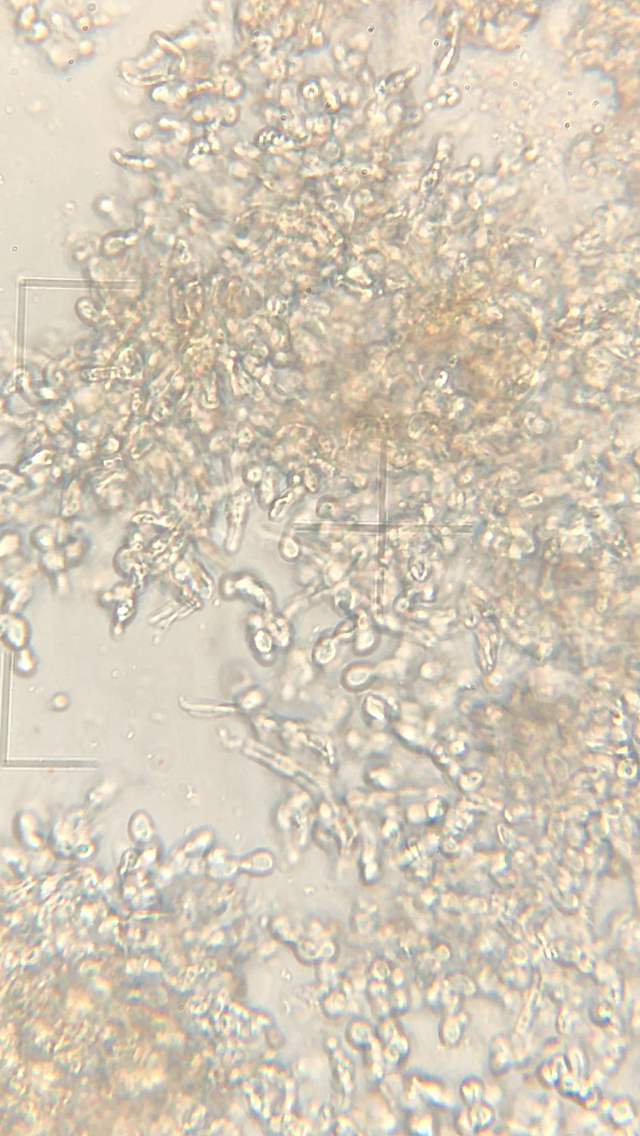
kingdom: Fungi
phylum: Basidiomycota
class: Tremellomycetes
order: Tremellales
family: Tremellaceae
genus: Tremella
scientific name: Tremella versicolor
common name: voksskind-bævresvamp
